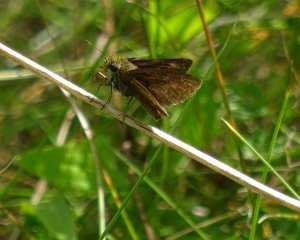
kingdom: Animalia
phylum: Arthropoda
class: Insecta
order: Lepidoptera
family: Hesperiidae
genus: Euphyes
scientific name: Euphyes vestris
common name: Dun Skipper
